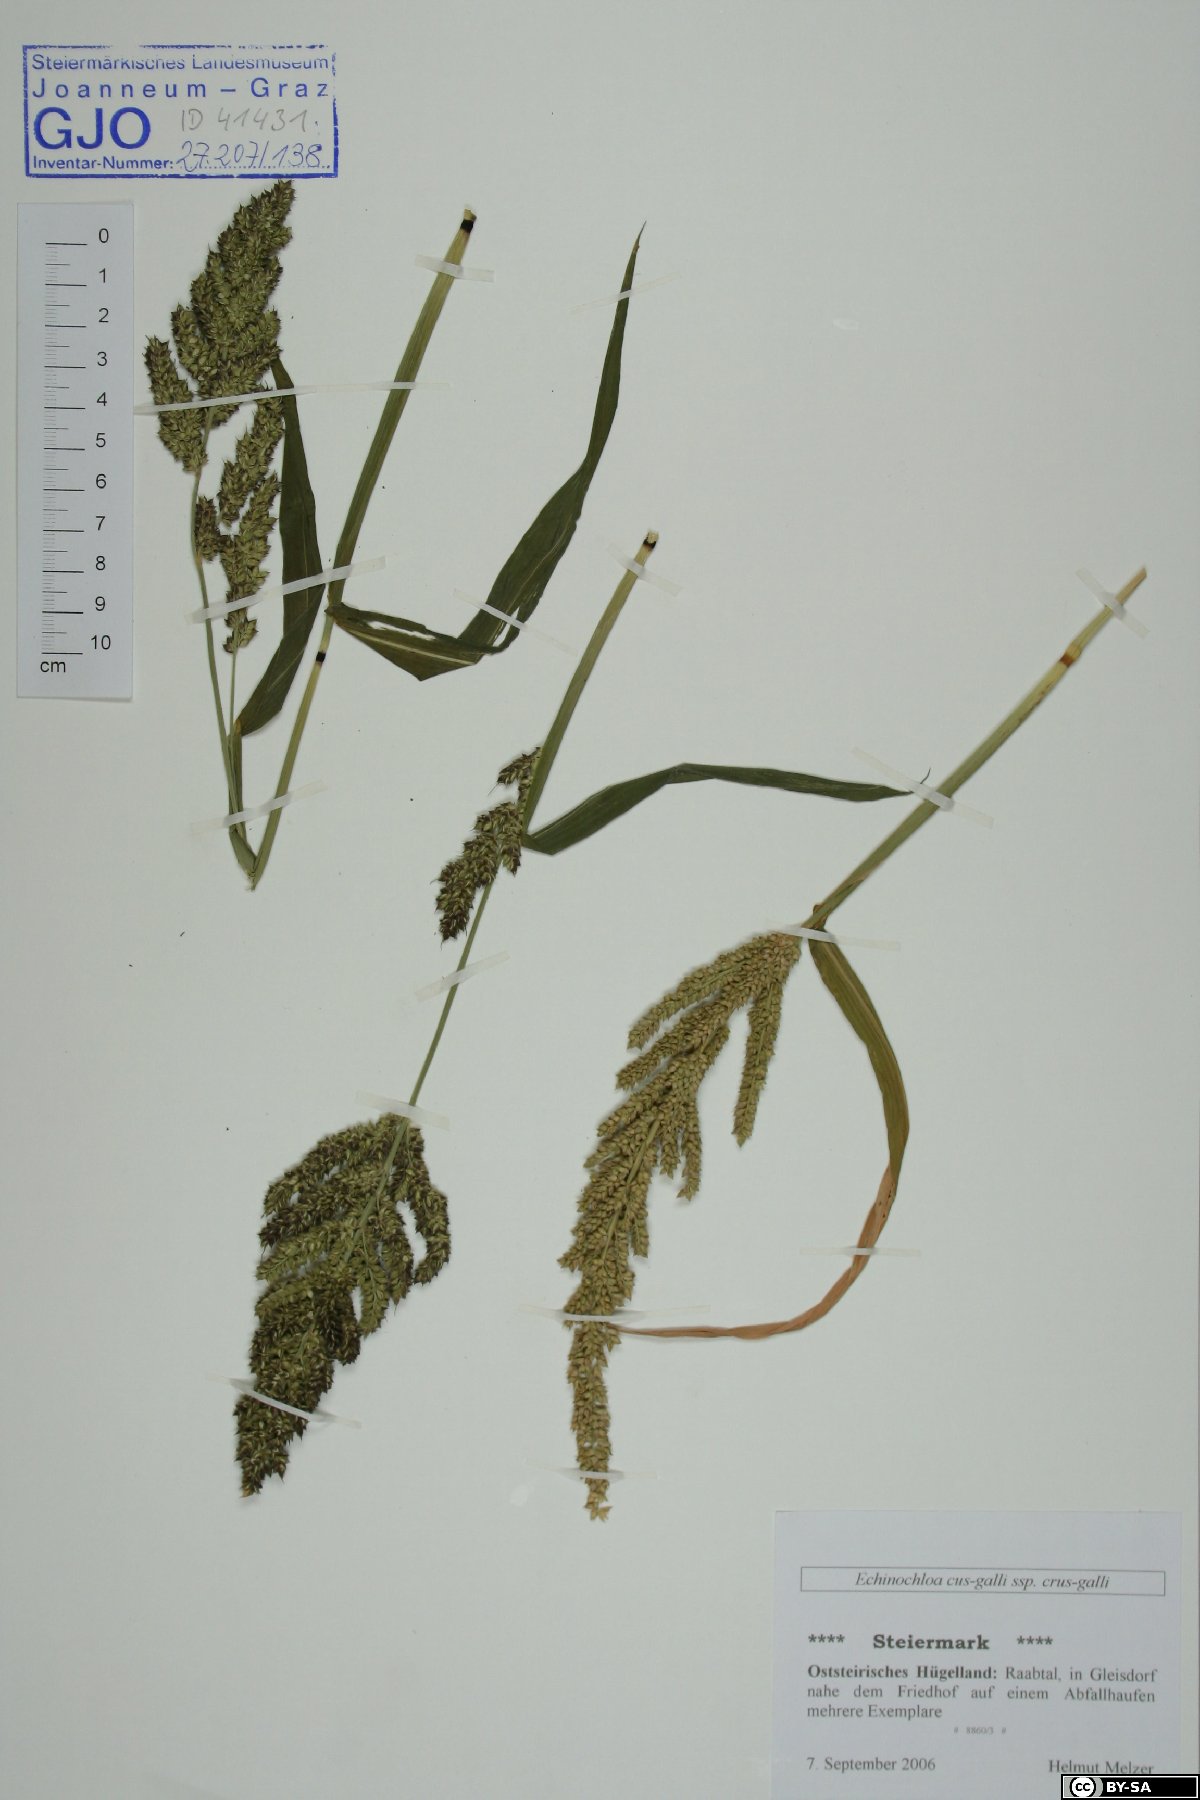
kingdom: Plantae
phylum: Tracheophyta
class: Liliopsida
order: Poales
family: Poaceae
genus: Echinochloa
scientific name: Echinochloa crus-galli
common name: Cockspur
